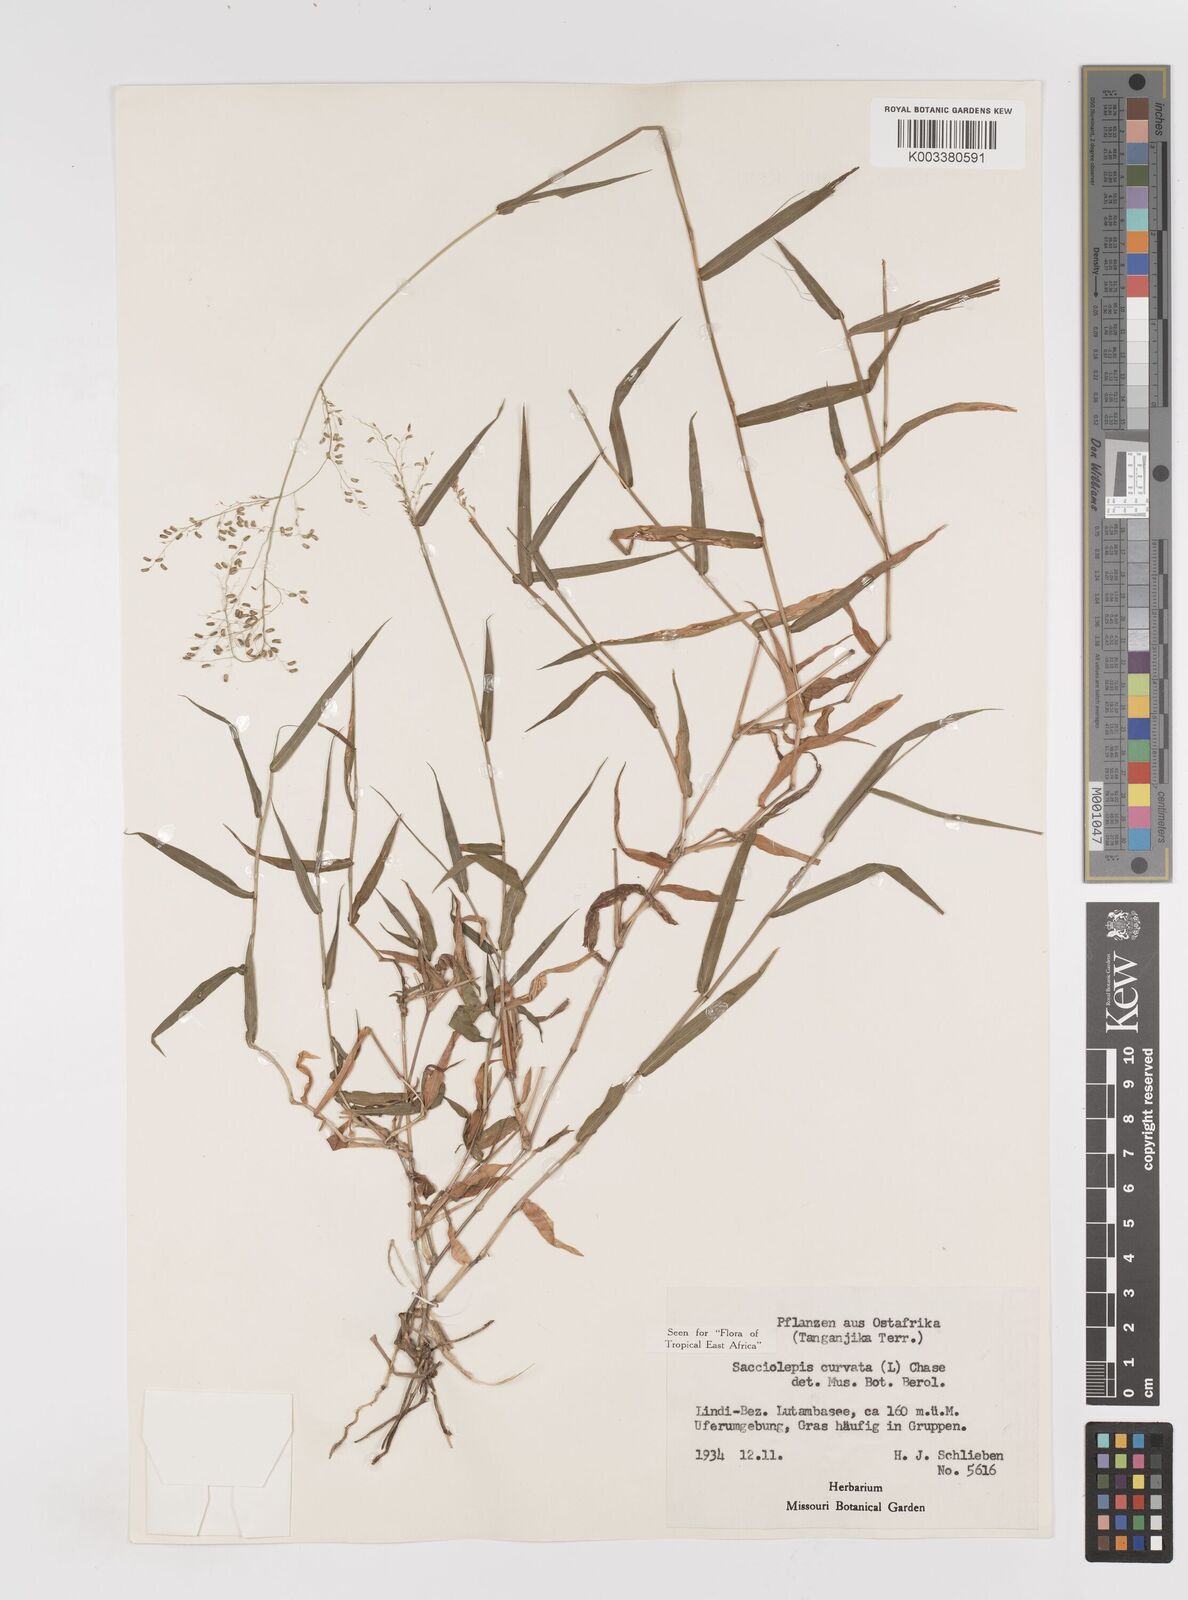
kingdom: Plantae
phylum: Tracheophyta
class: Liliopsida
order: Poales
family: Poaceae
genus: Sacciolepis
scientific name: Sacciolepis curvata
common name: Forest hood grass
